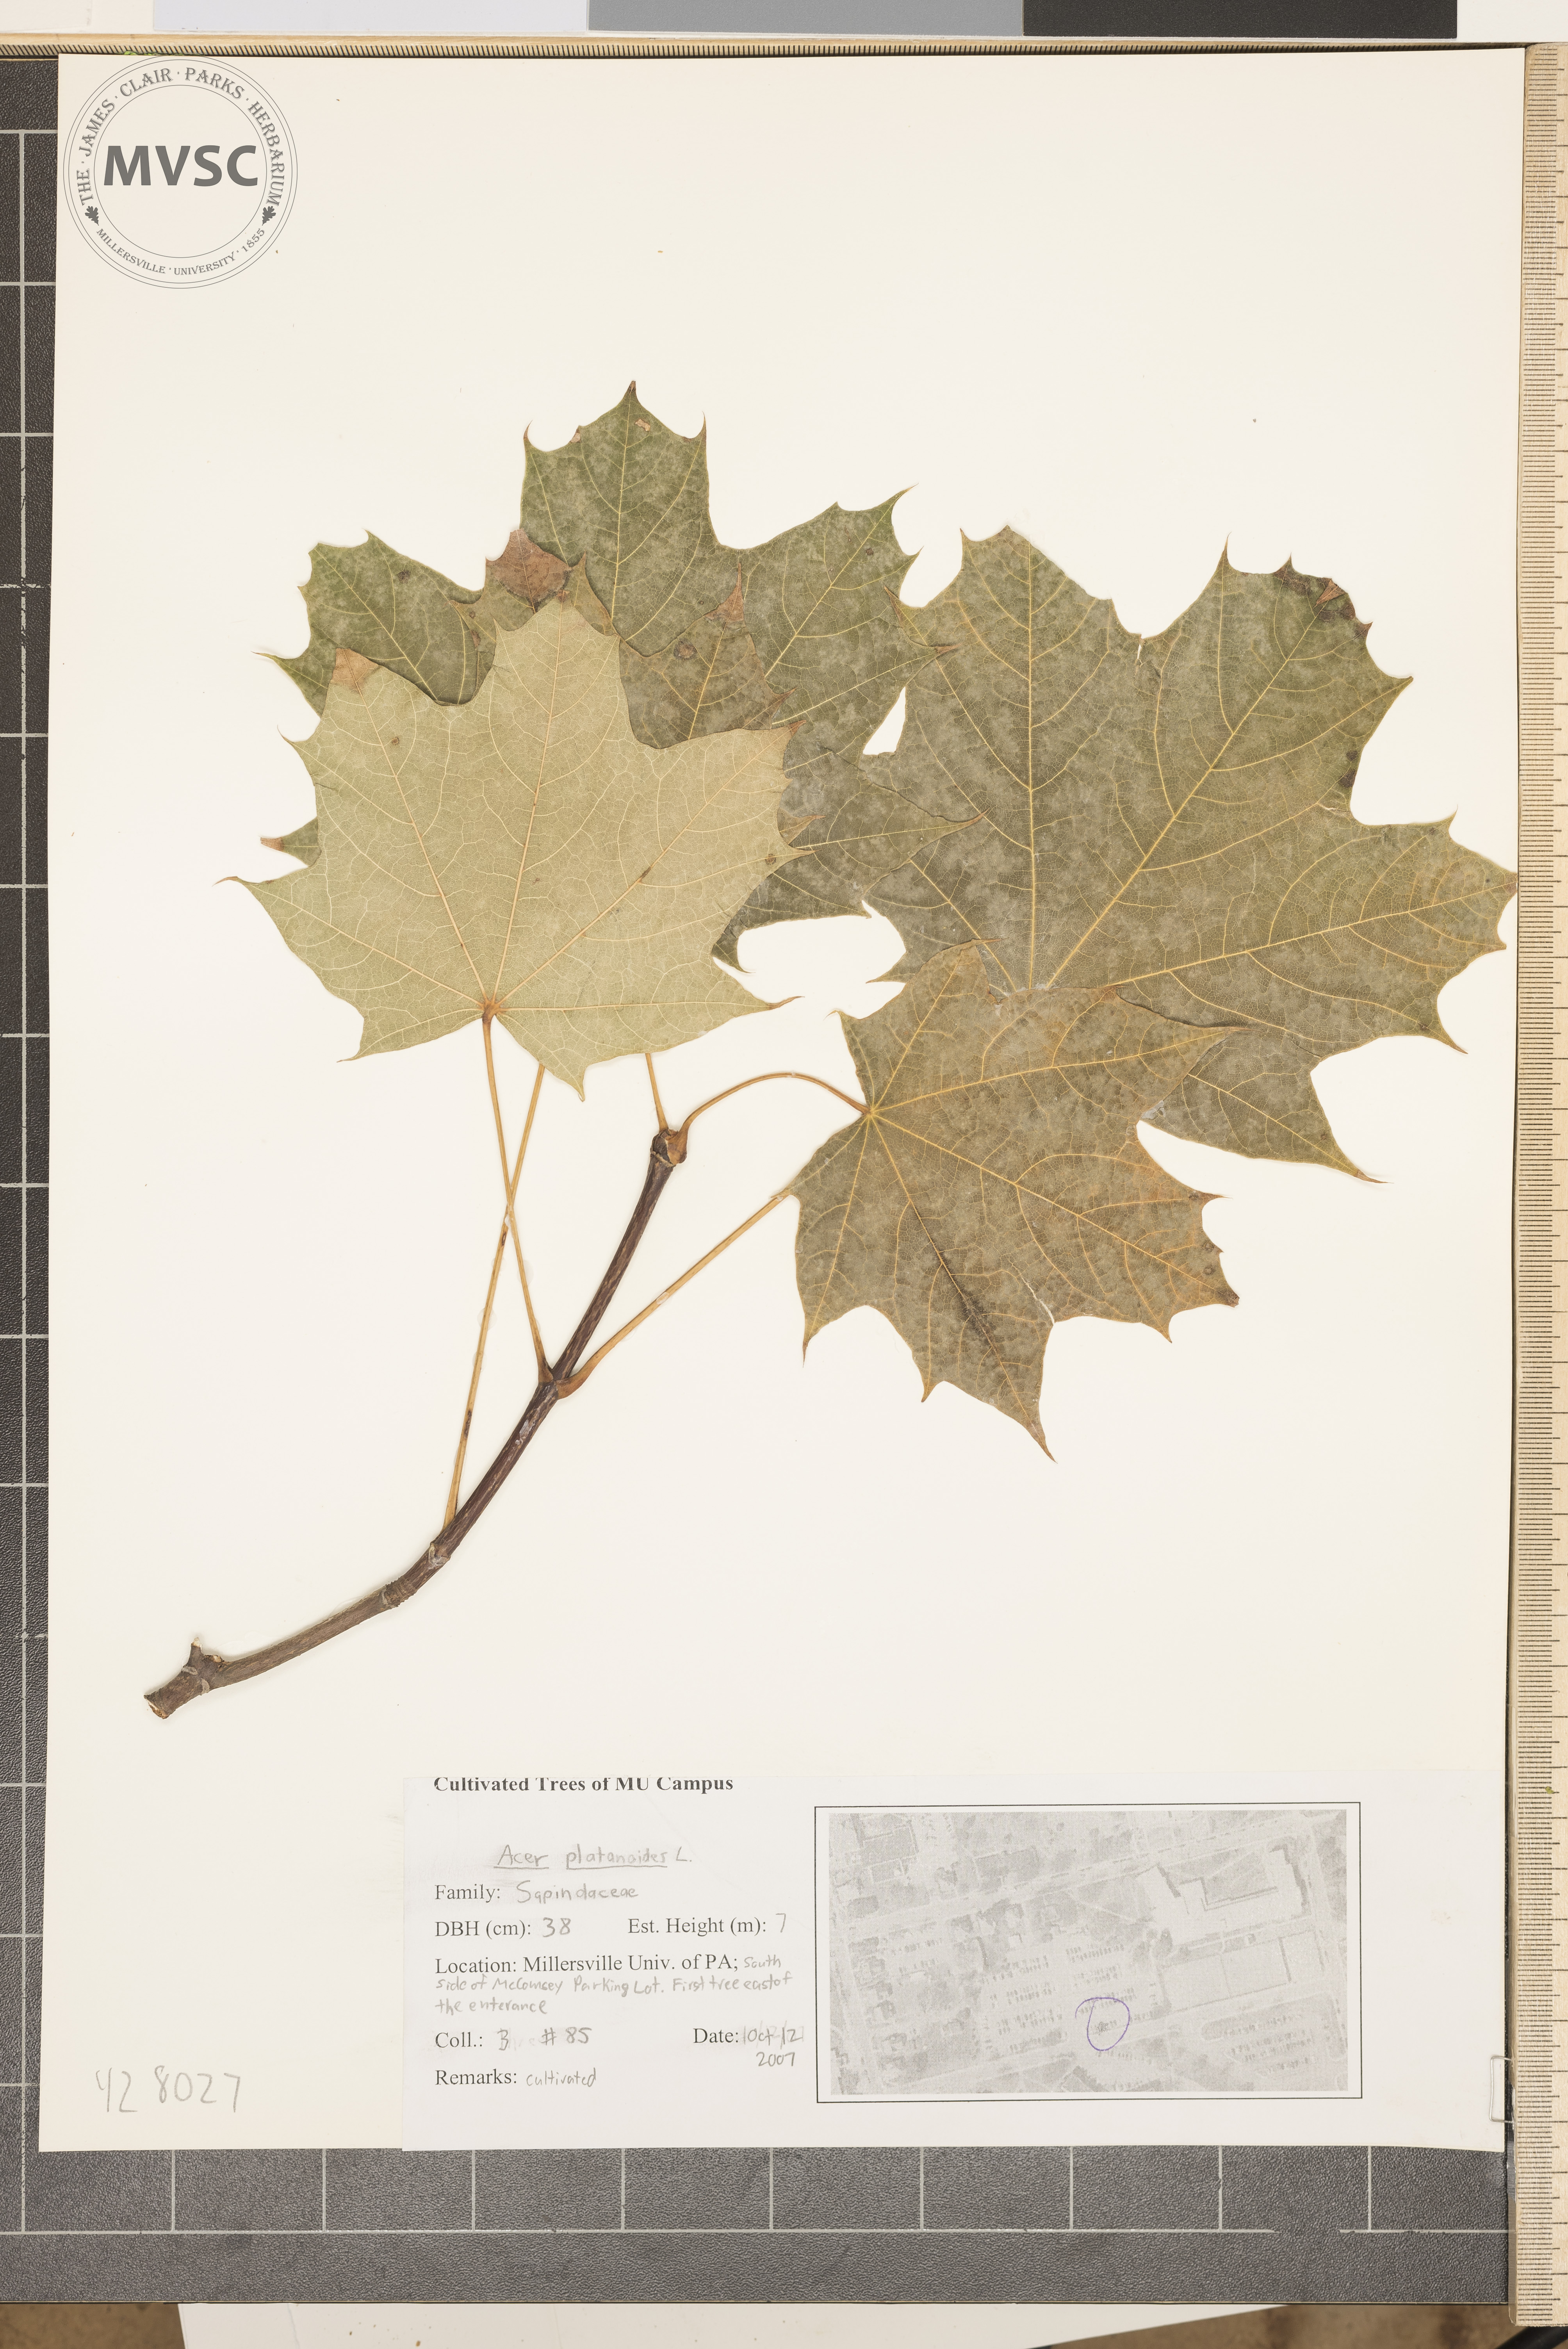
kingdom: Plantae
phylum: Tracheophyta
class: Magnoliopsida
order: Sapindales
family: Sapindaceae
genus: Acer
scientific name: Acer platanoides
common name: Norway maple
